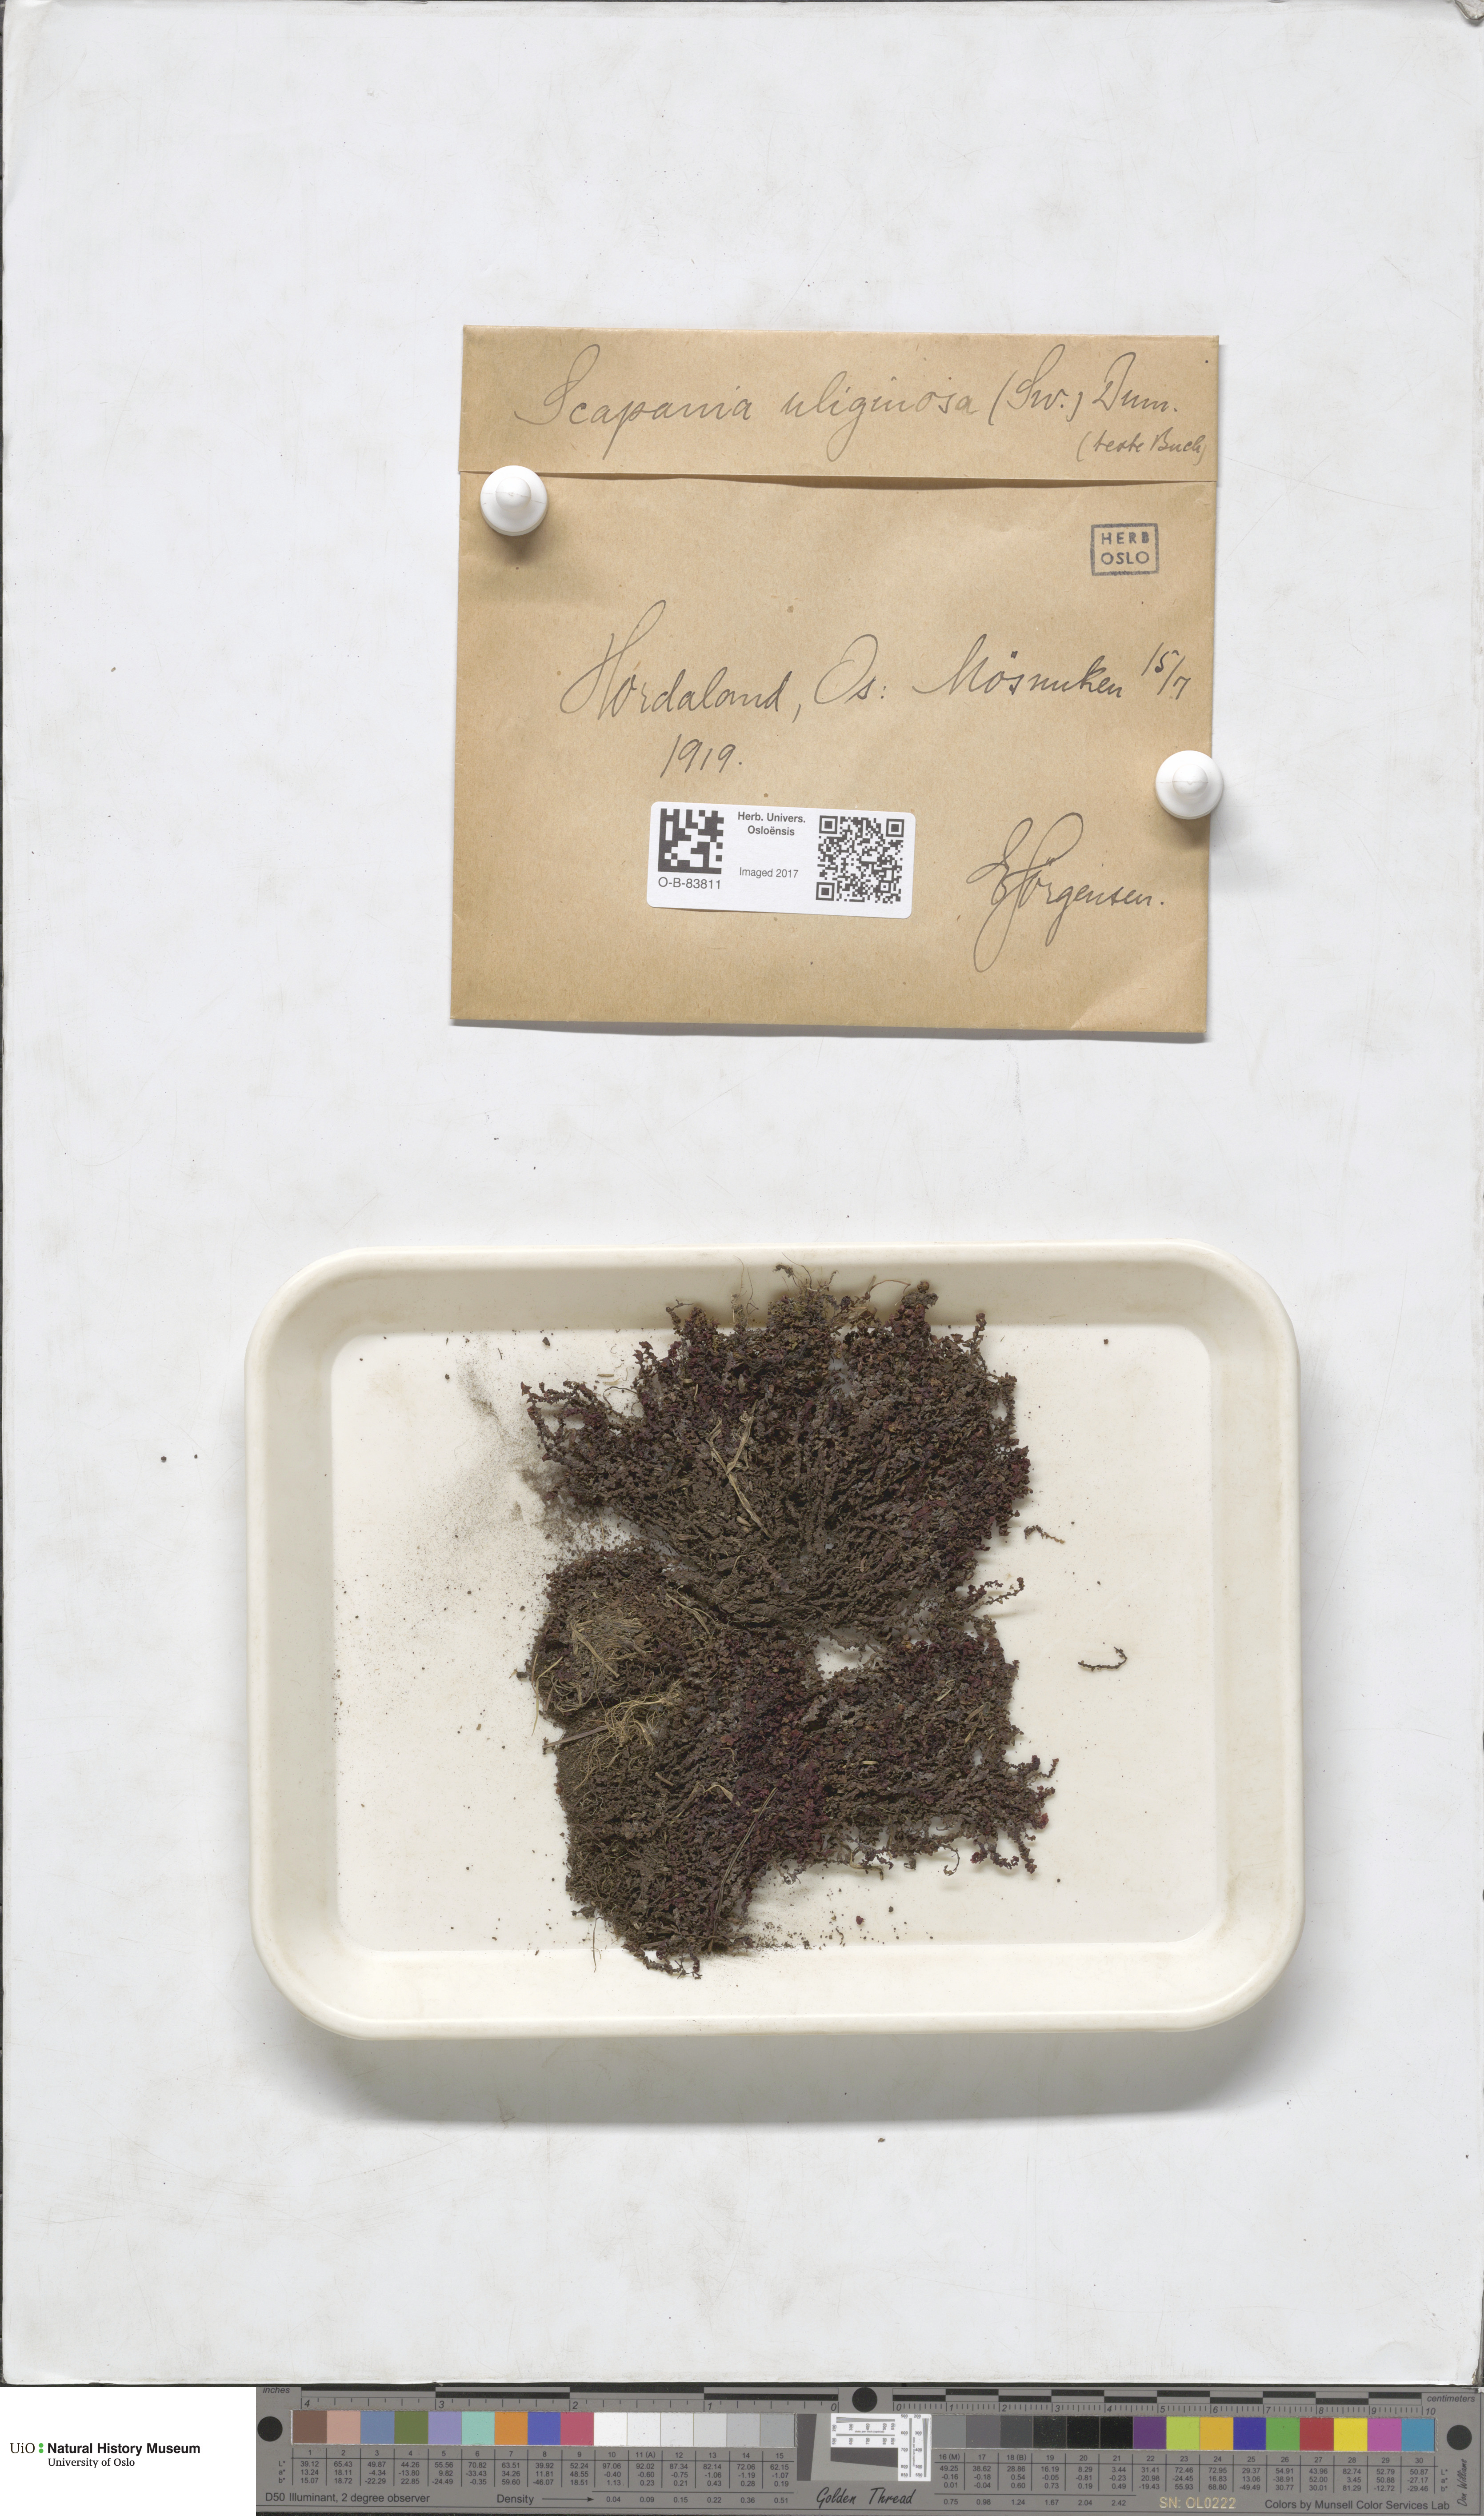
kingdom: Plantae
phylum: Marchantiophyta
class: Jungermanniopsida
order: Jungermanniales
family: Scapaniaceae
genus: Scapania
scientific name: Scapania uliginosa
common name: Marsh earwort
